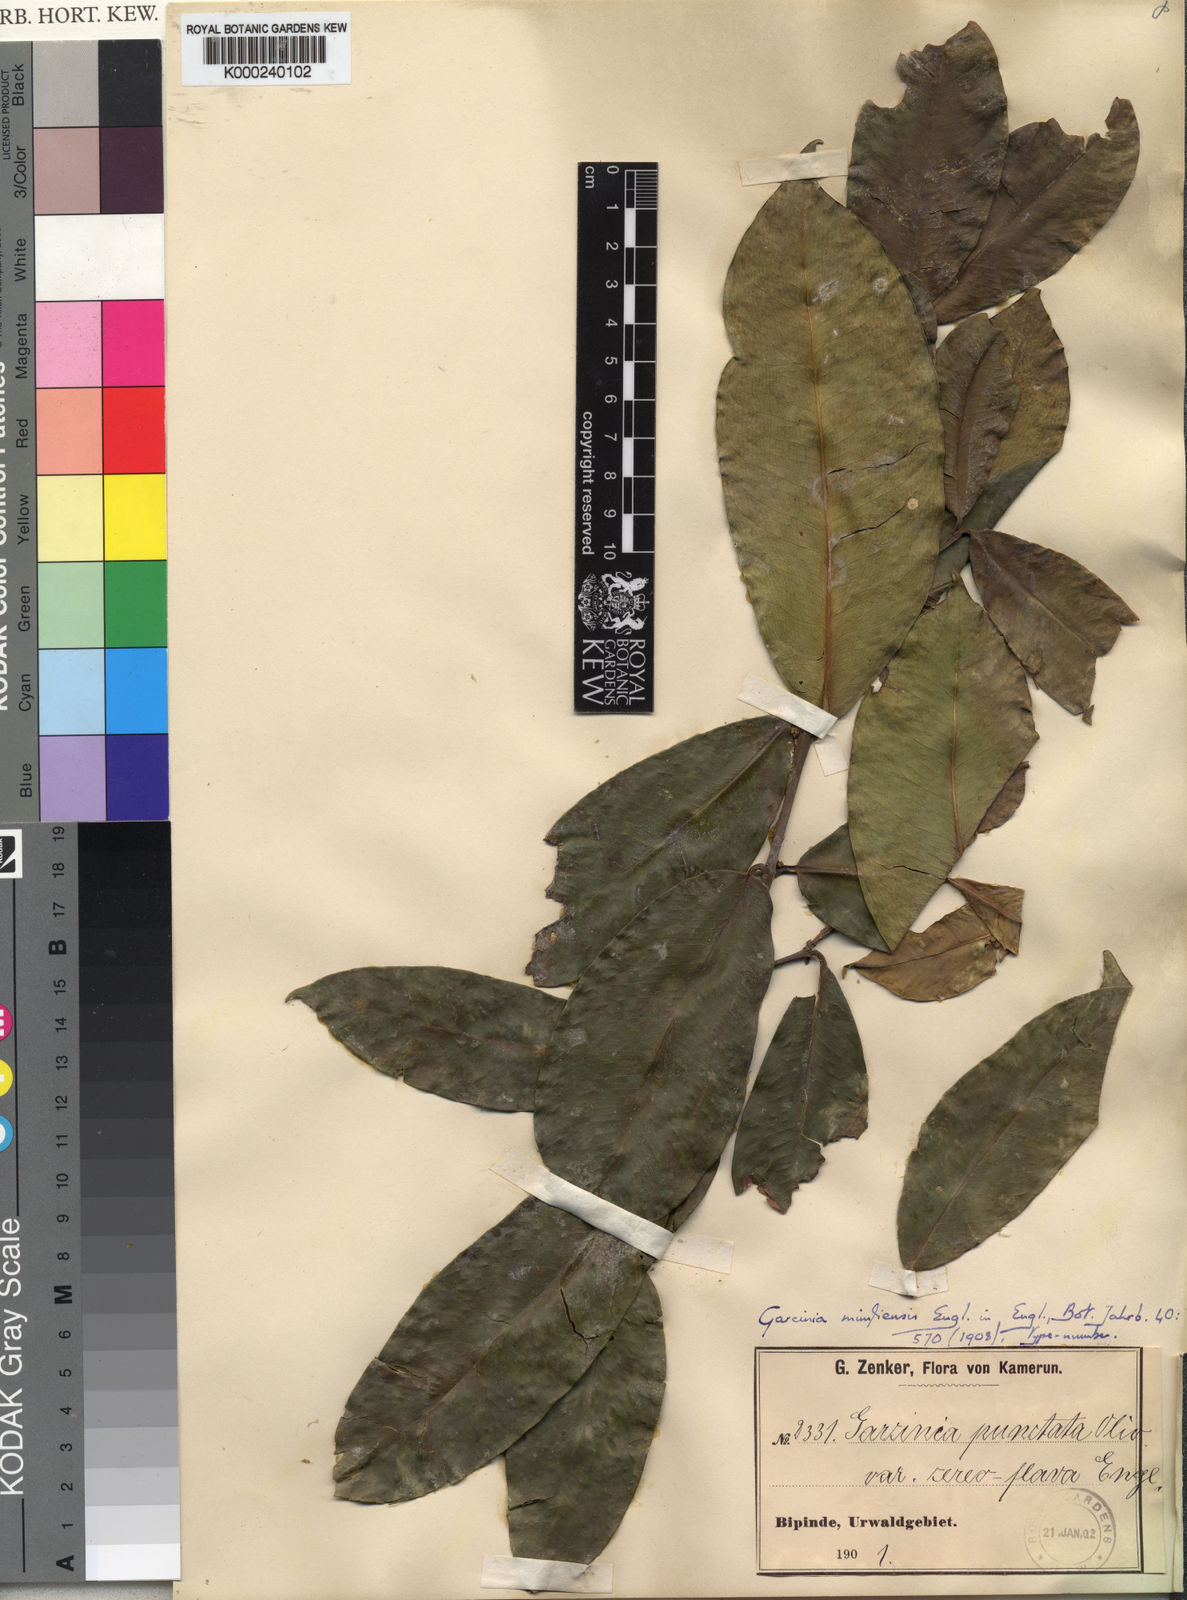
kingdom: Plantae
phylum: Tracheophyta
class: Magnoliopsida
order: Malpighiales
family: Clusiaceae
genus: Garcinia
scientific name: Garcinia epunctata
